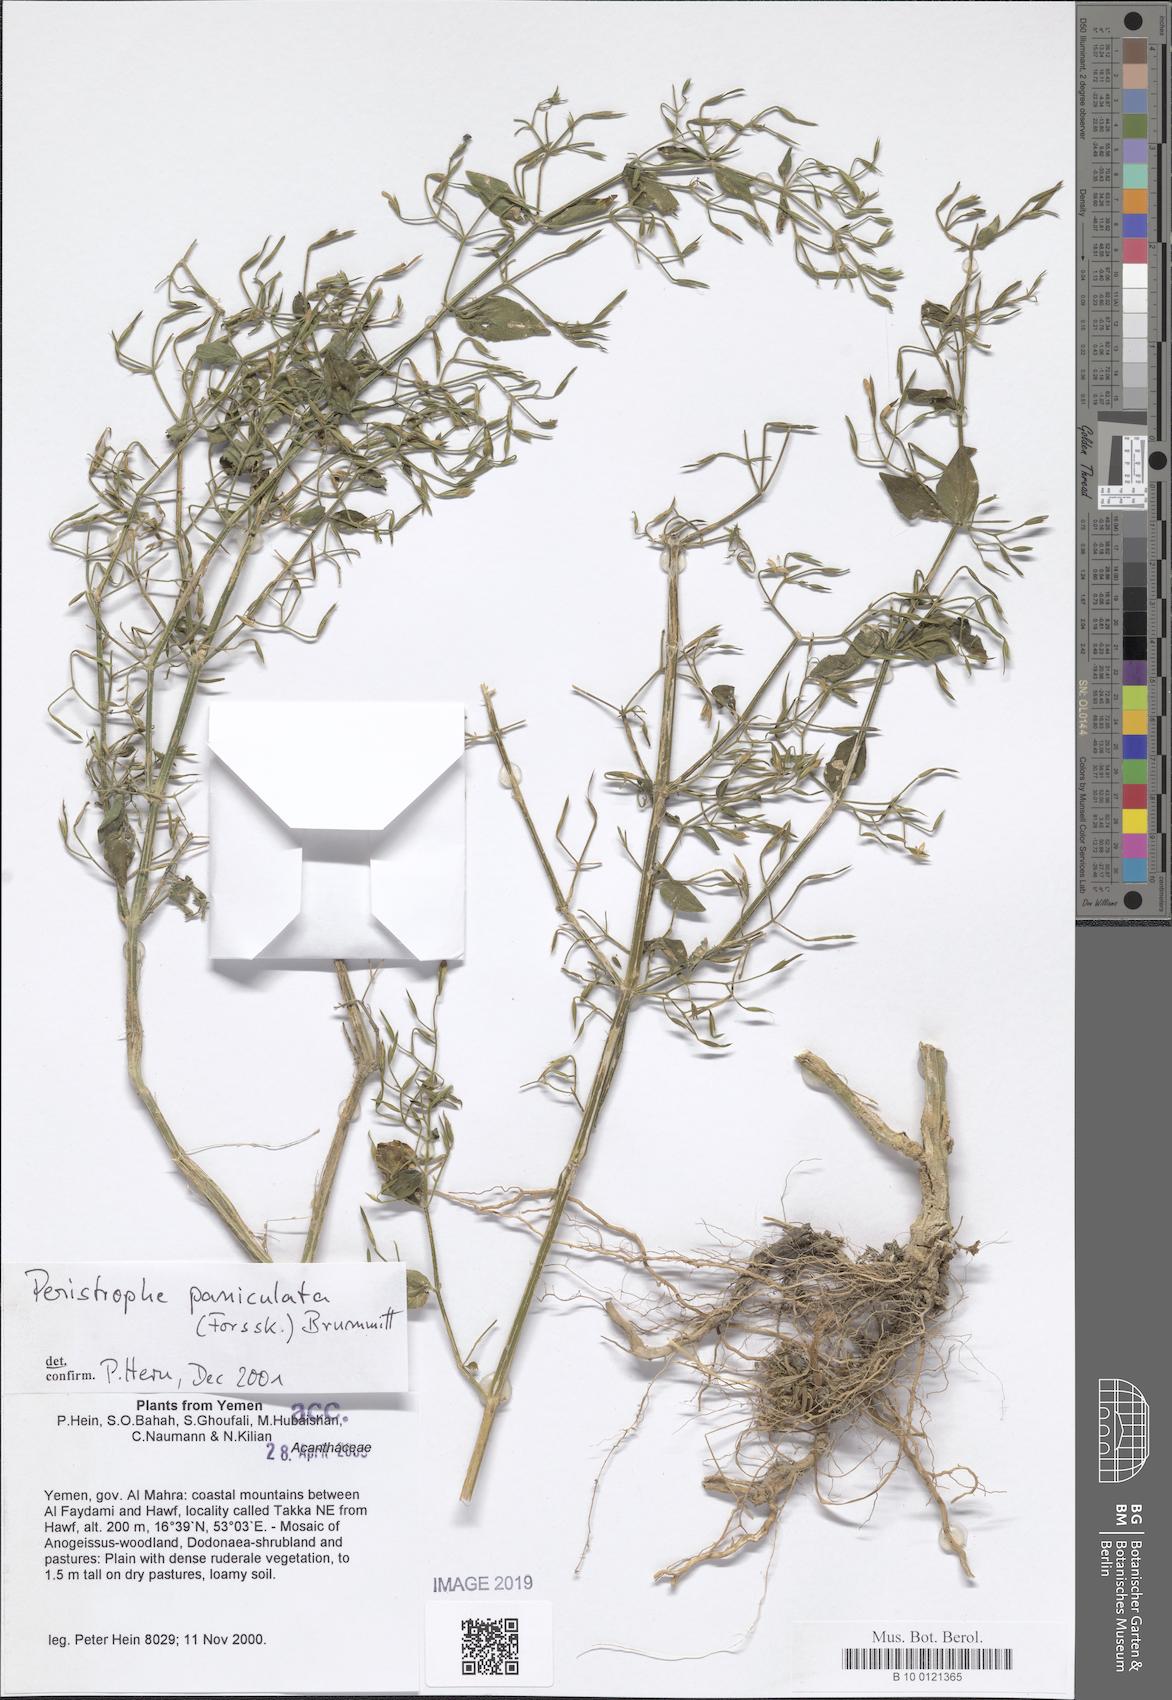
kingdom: Plantae
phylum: Tracheophyta
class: Magnoliopsida
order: Lamiales
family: Acanthaceae
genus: Dicliptera
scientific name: Dicliptera paniculata
